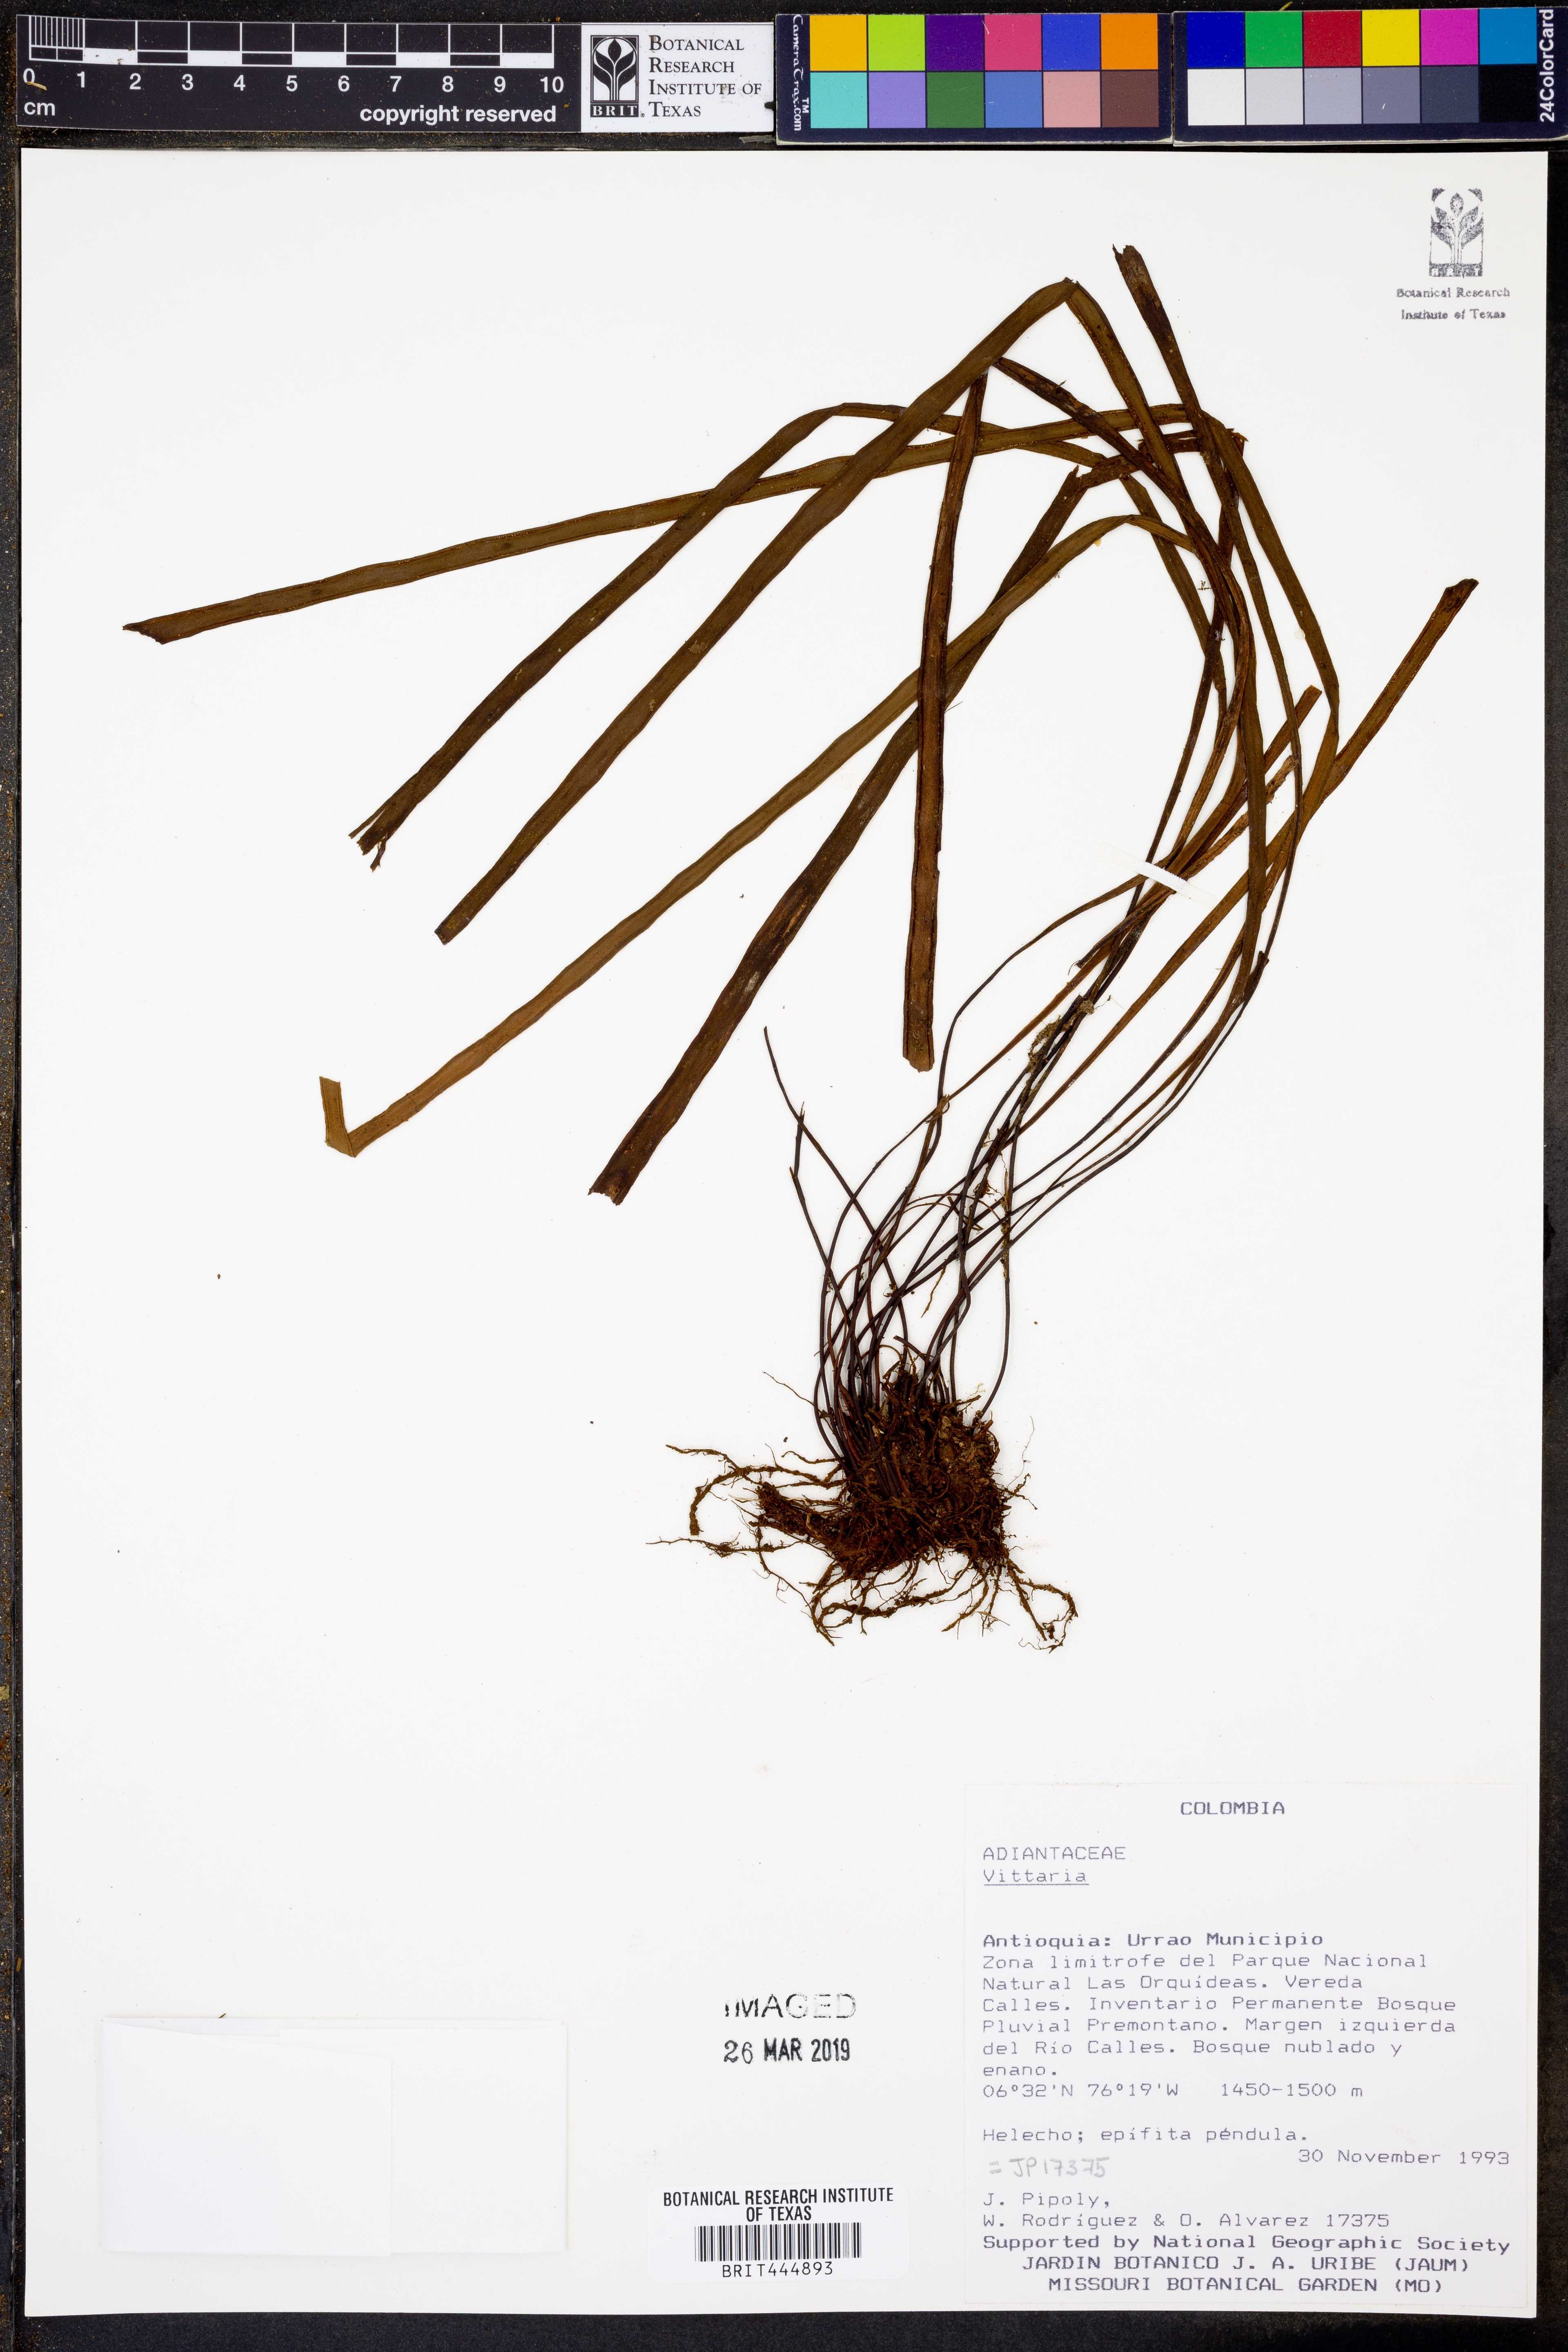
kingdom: Plantae
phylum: Tracheophyta
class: Polypodiopsida
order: Polypodiales
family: Pteridaceae
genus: Vittaria
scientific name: Vittaria
